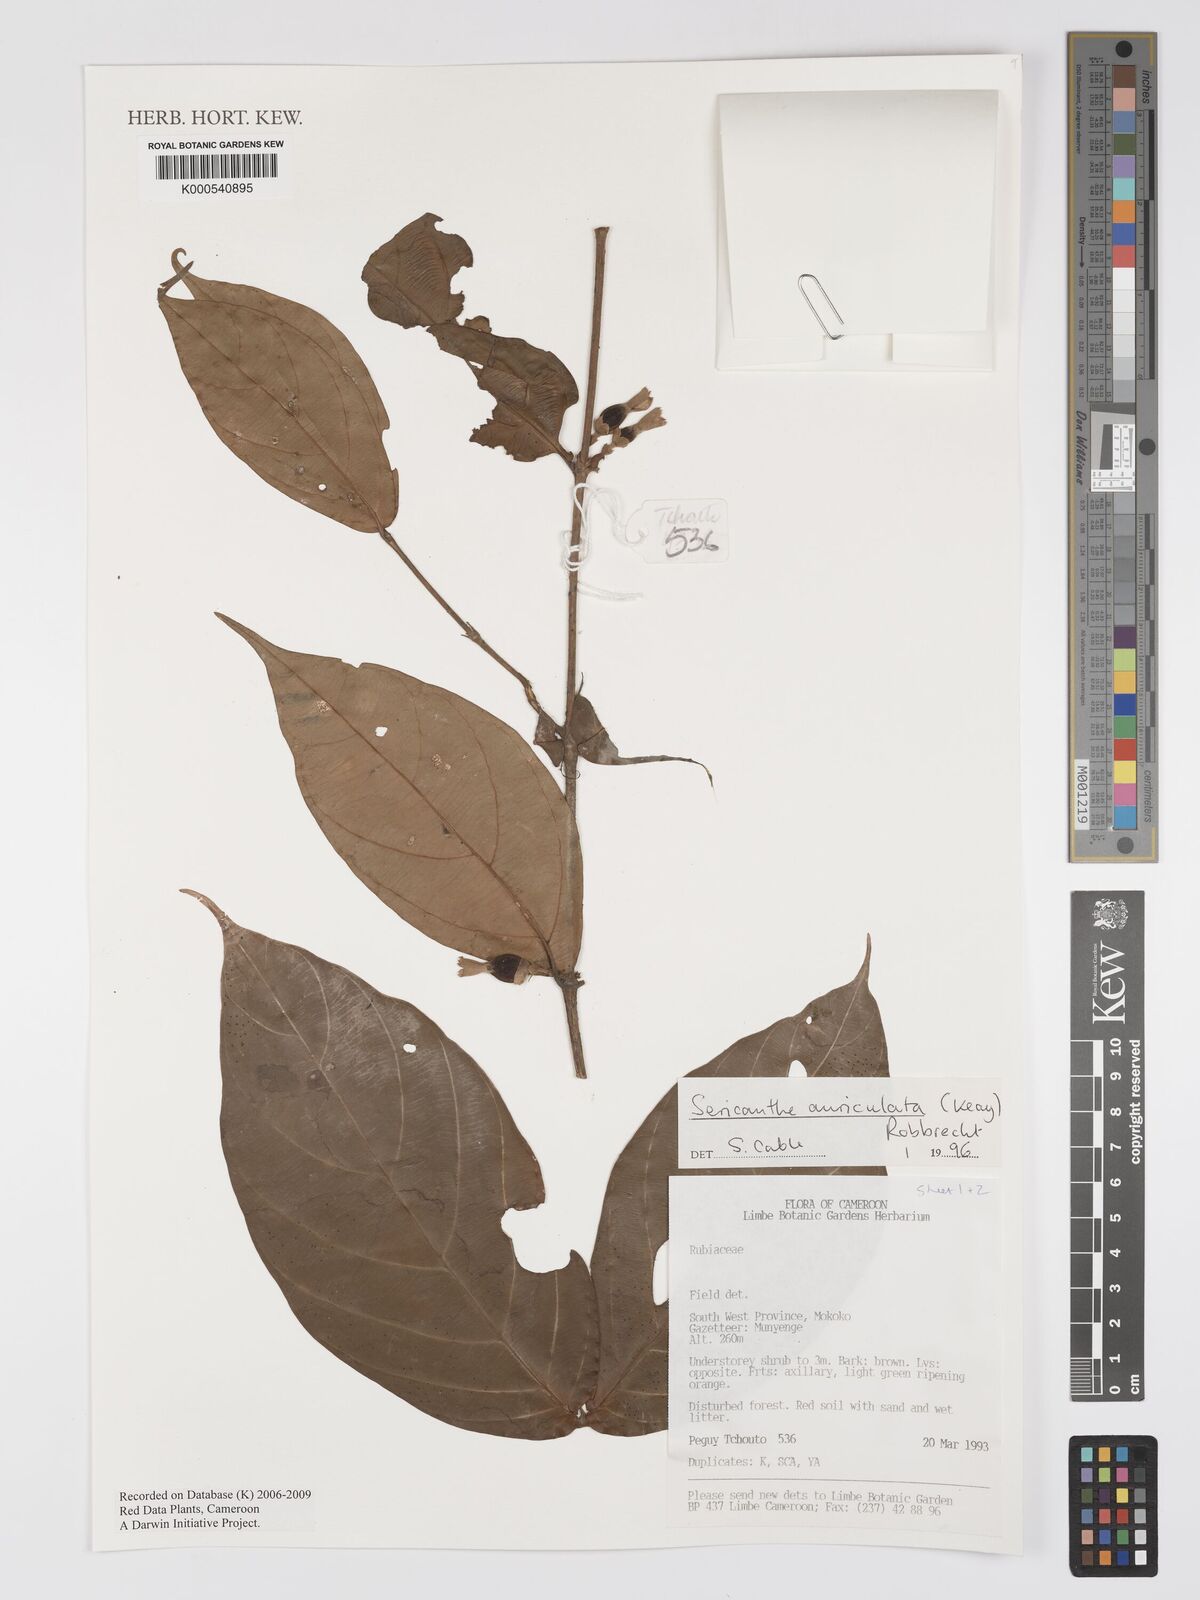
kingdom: Plantae
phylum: Tracheophyta
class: Magnoliopsida
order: Gentianales
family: Rubiaceae
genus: Sericanthe
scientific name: Sericanthe auriculata
